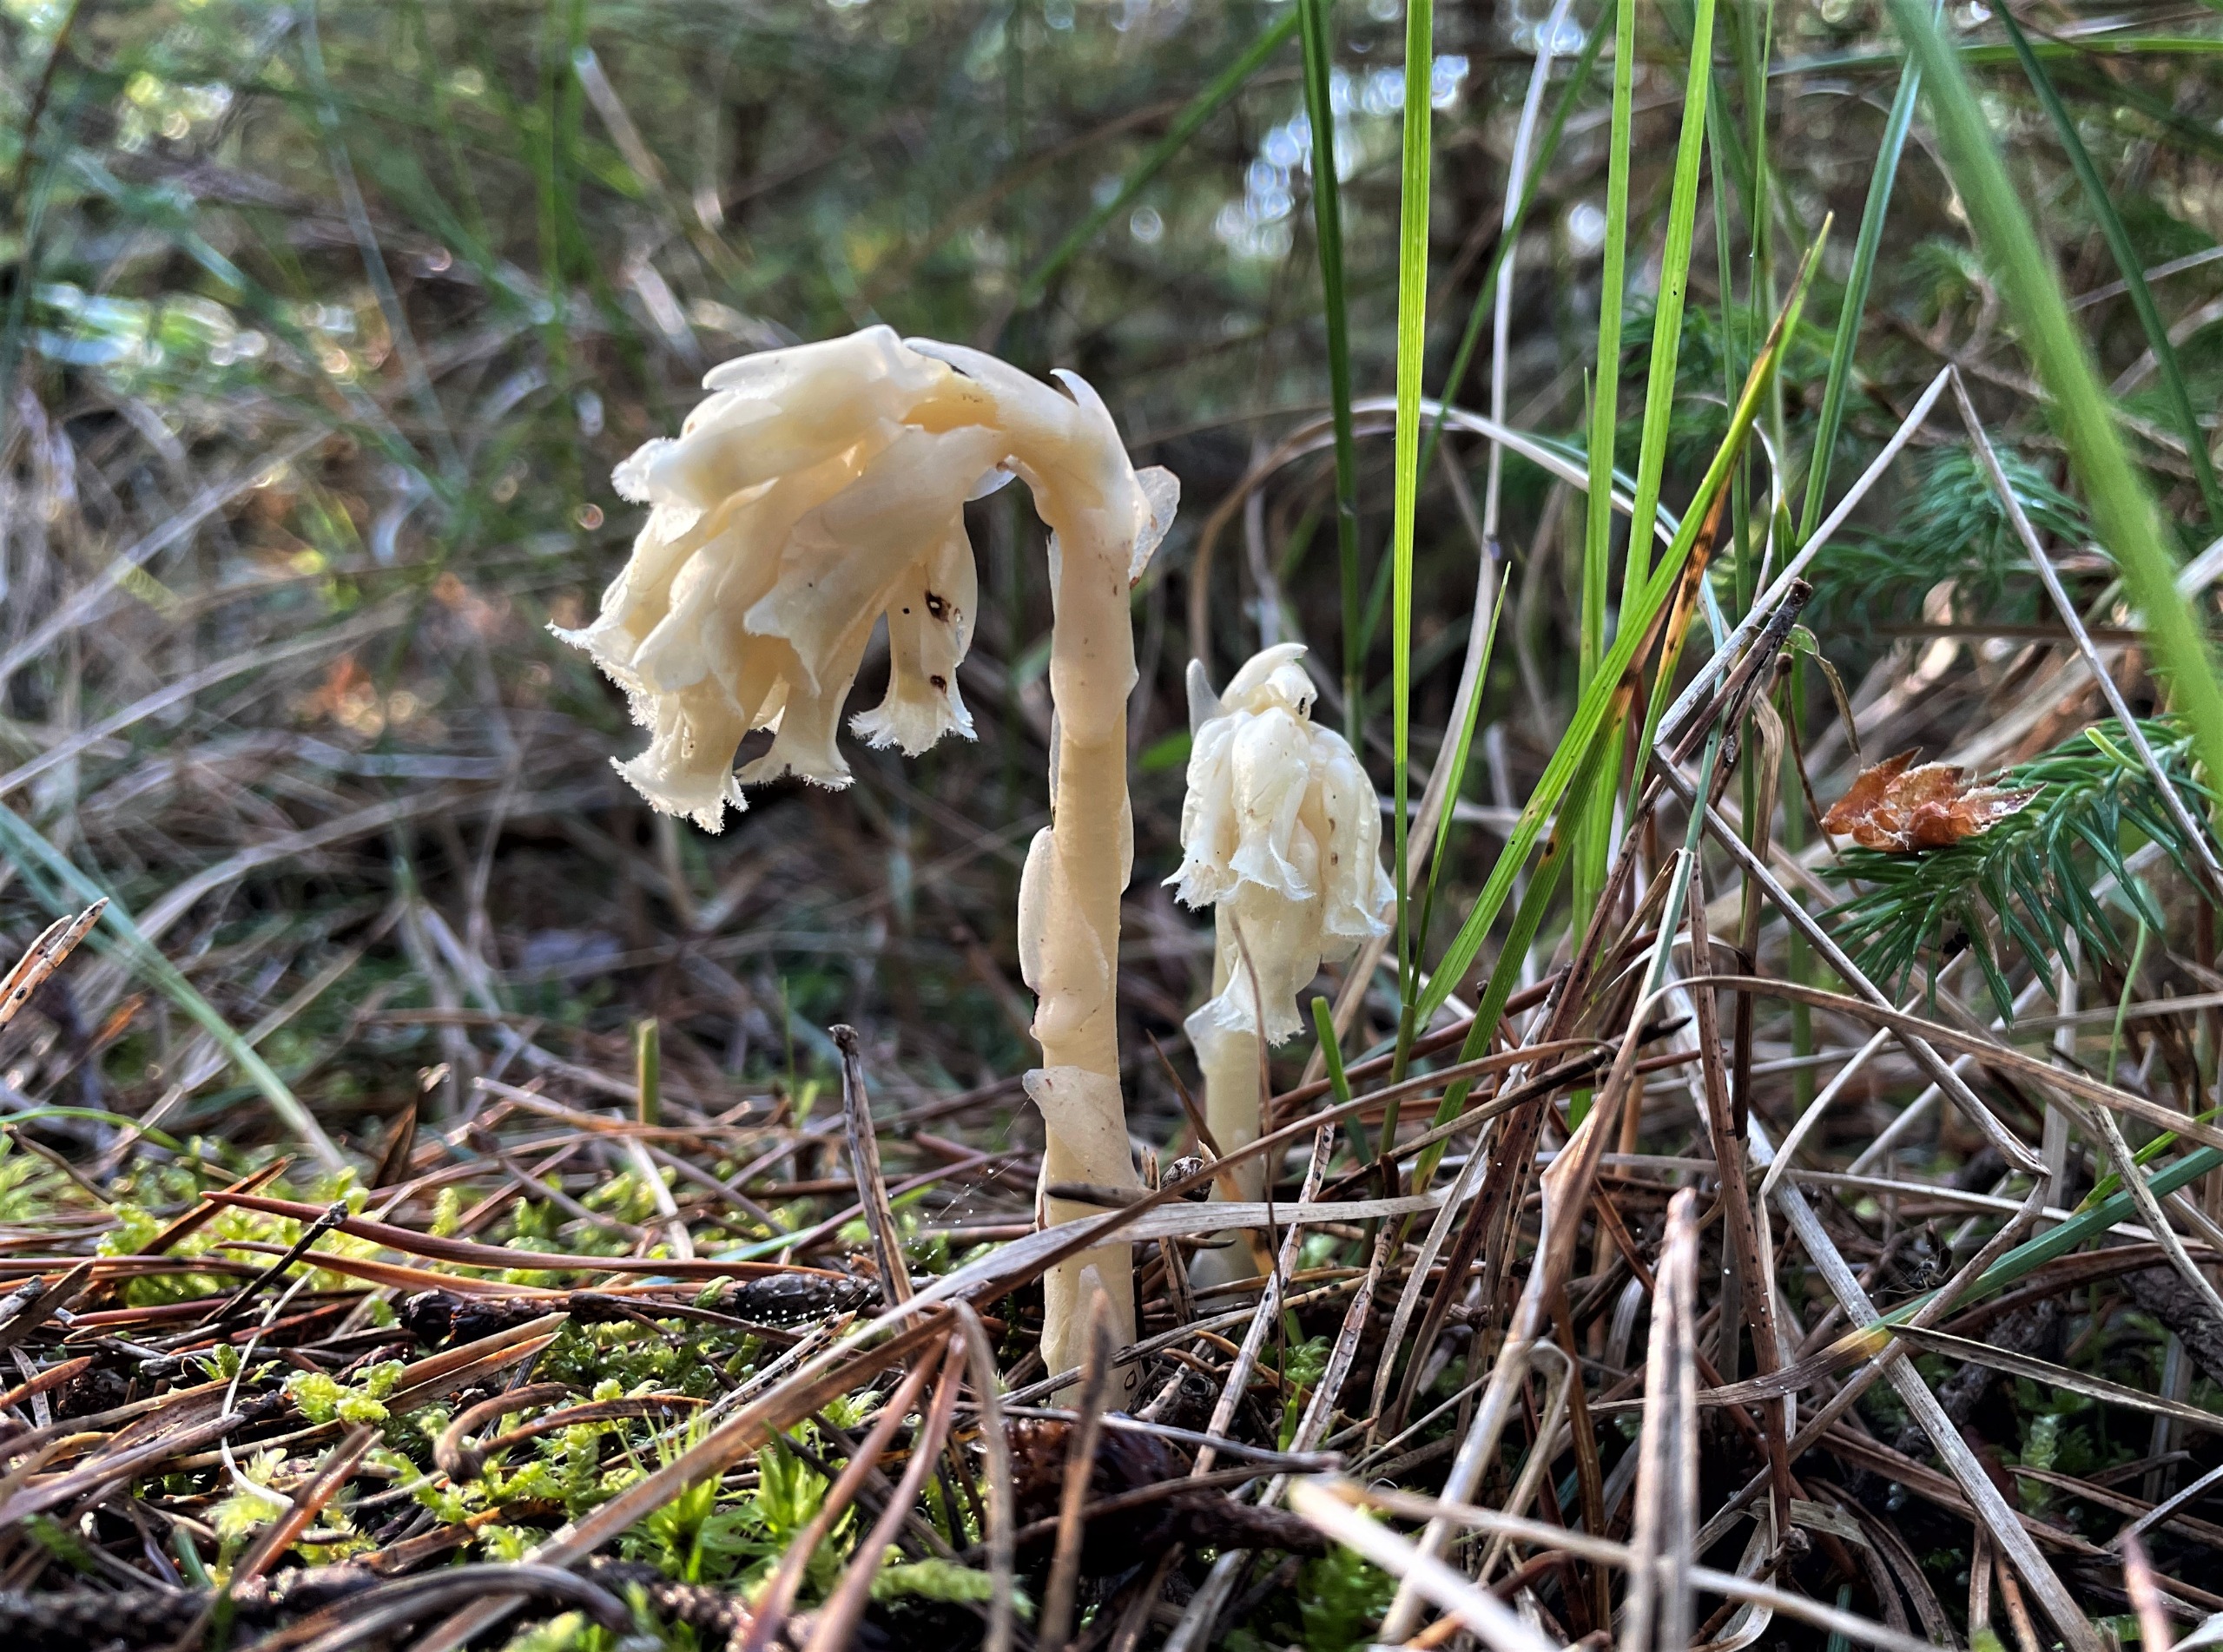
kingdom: Plantae
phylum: Tracheophyta
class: Magnoliopsida
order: Ericales
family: Ericaceae
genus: Hypopitys
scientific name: Hypopitys monotropa
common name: Snylterod
